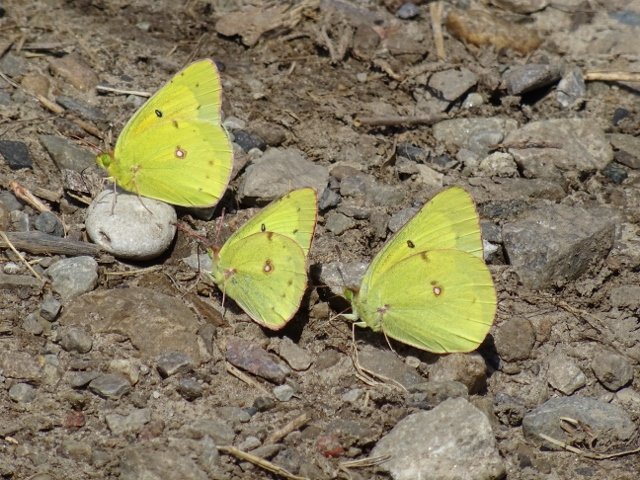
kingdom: Animalia
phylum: Arthropoda
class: Insecta
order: Lepidoptera
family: Pieridae
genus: Colias
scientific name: Colias philodice
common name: Clouded Sulphur
